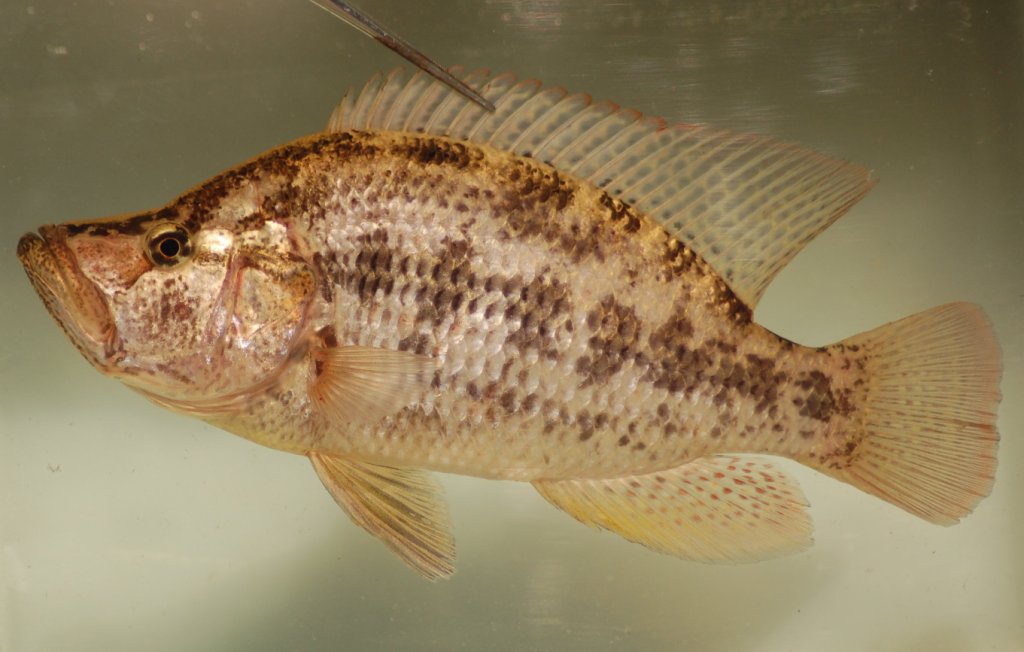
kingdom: Animalia
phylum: Chordata
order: Perciformes
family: Cichlidae
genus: Serranochromis
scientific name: Serranochromis
